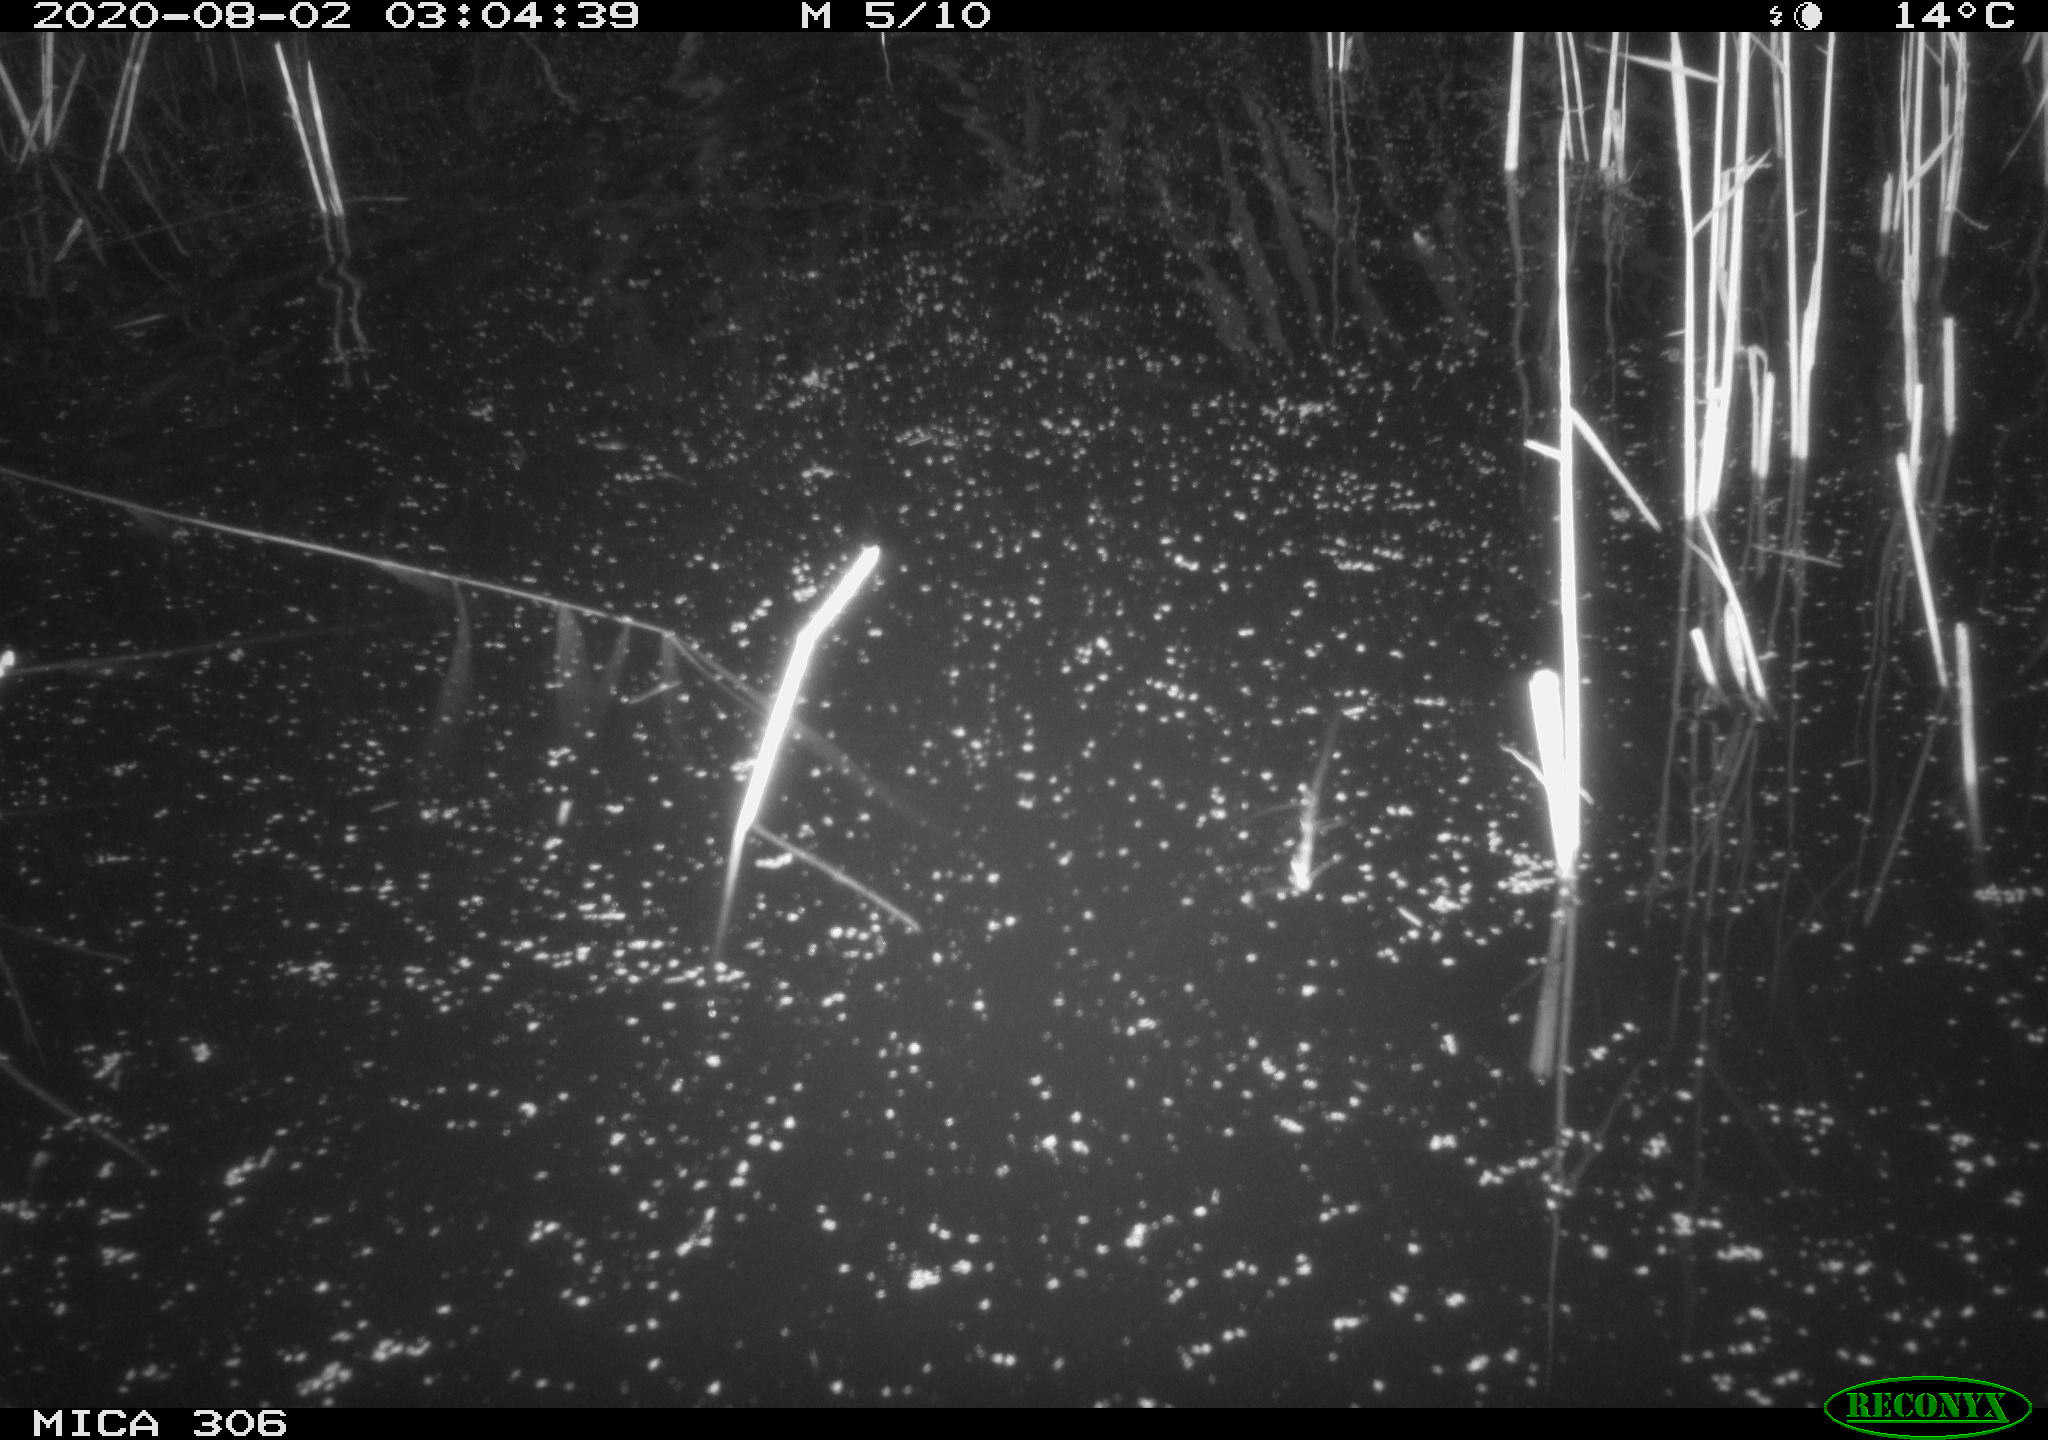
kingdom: Animalia
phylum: Chordata
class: Mammalia
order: Rodentia
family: Cricetidae
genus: Ondatra
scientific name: Ondatra zibethicus
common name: Muskrat
